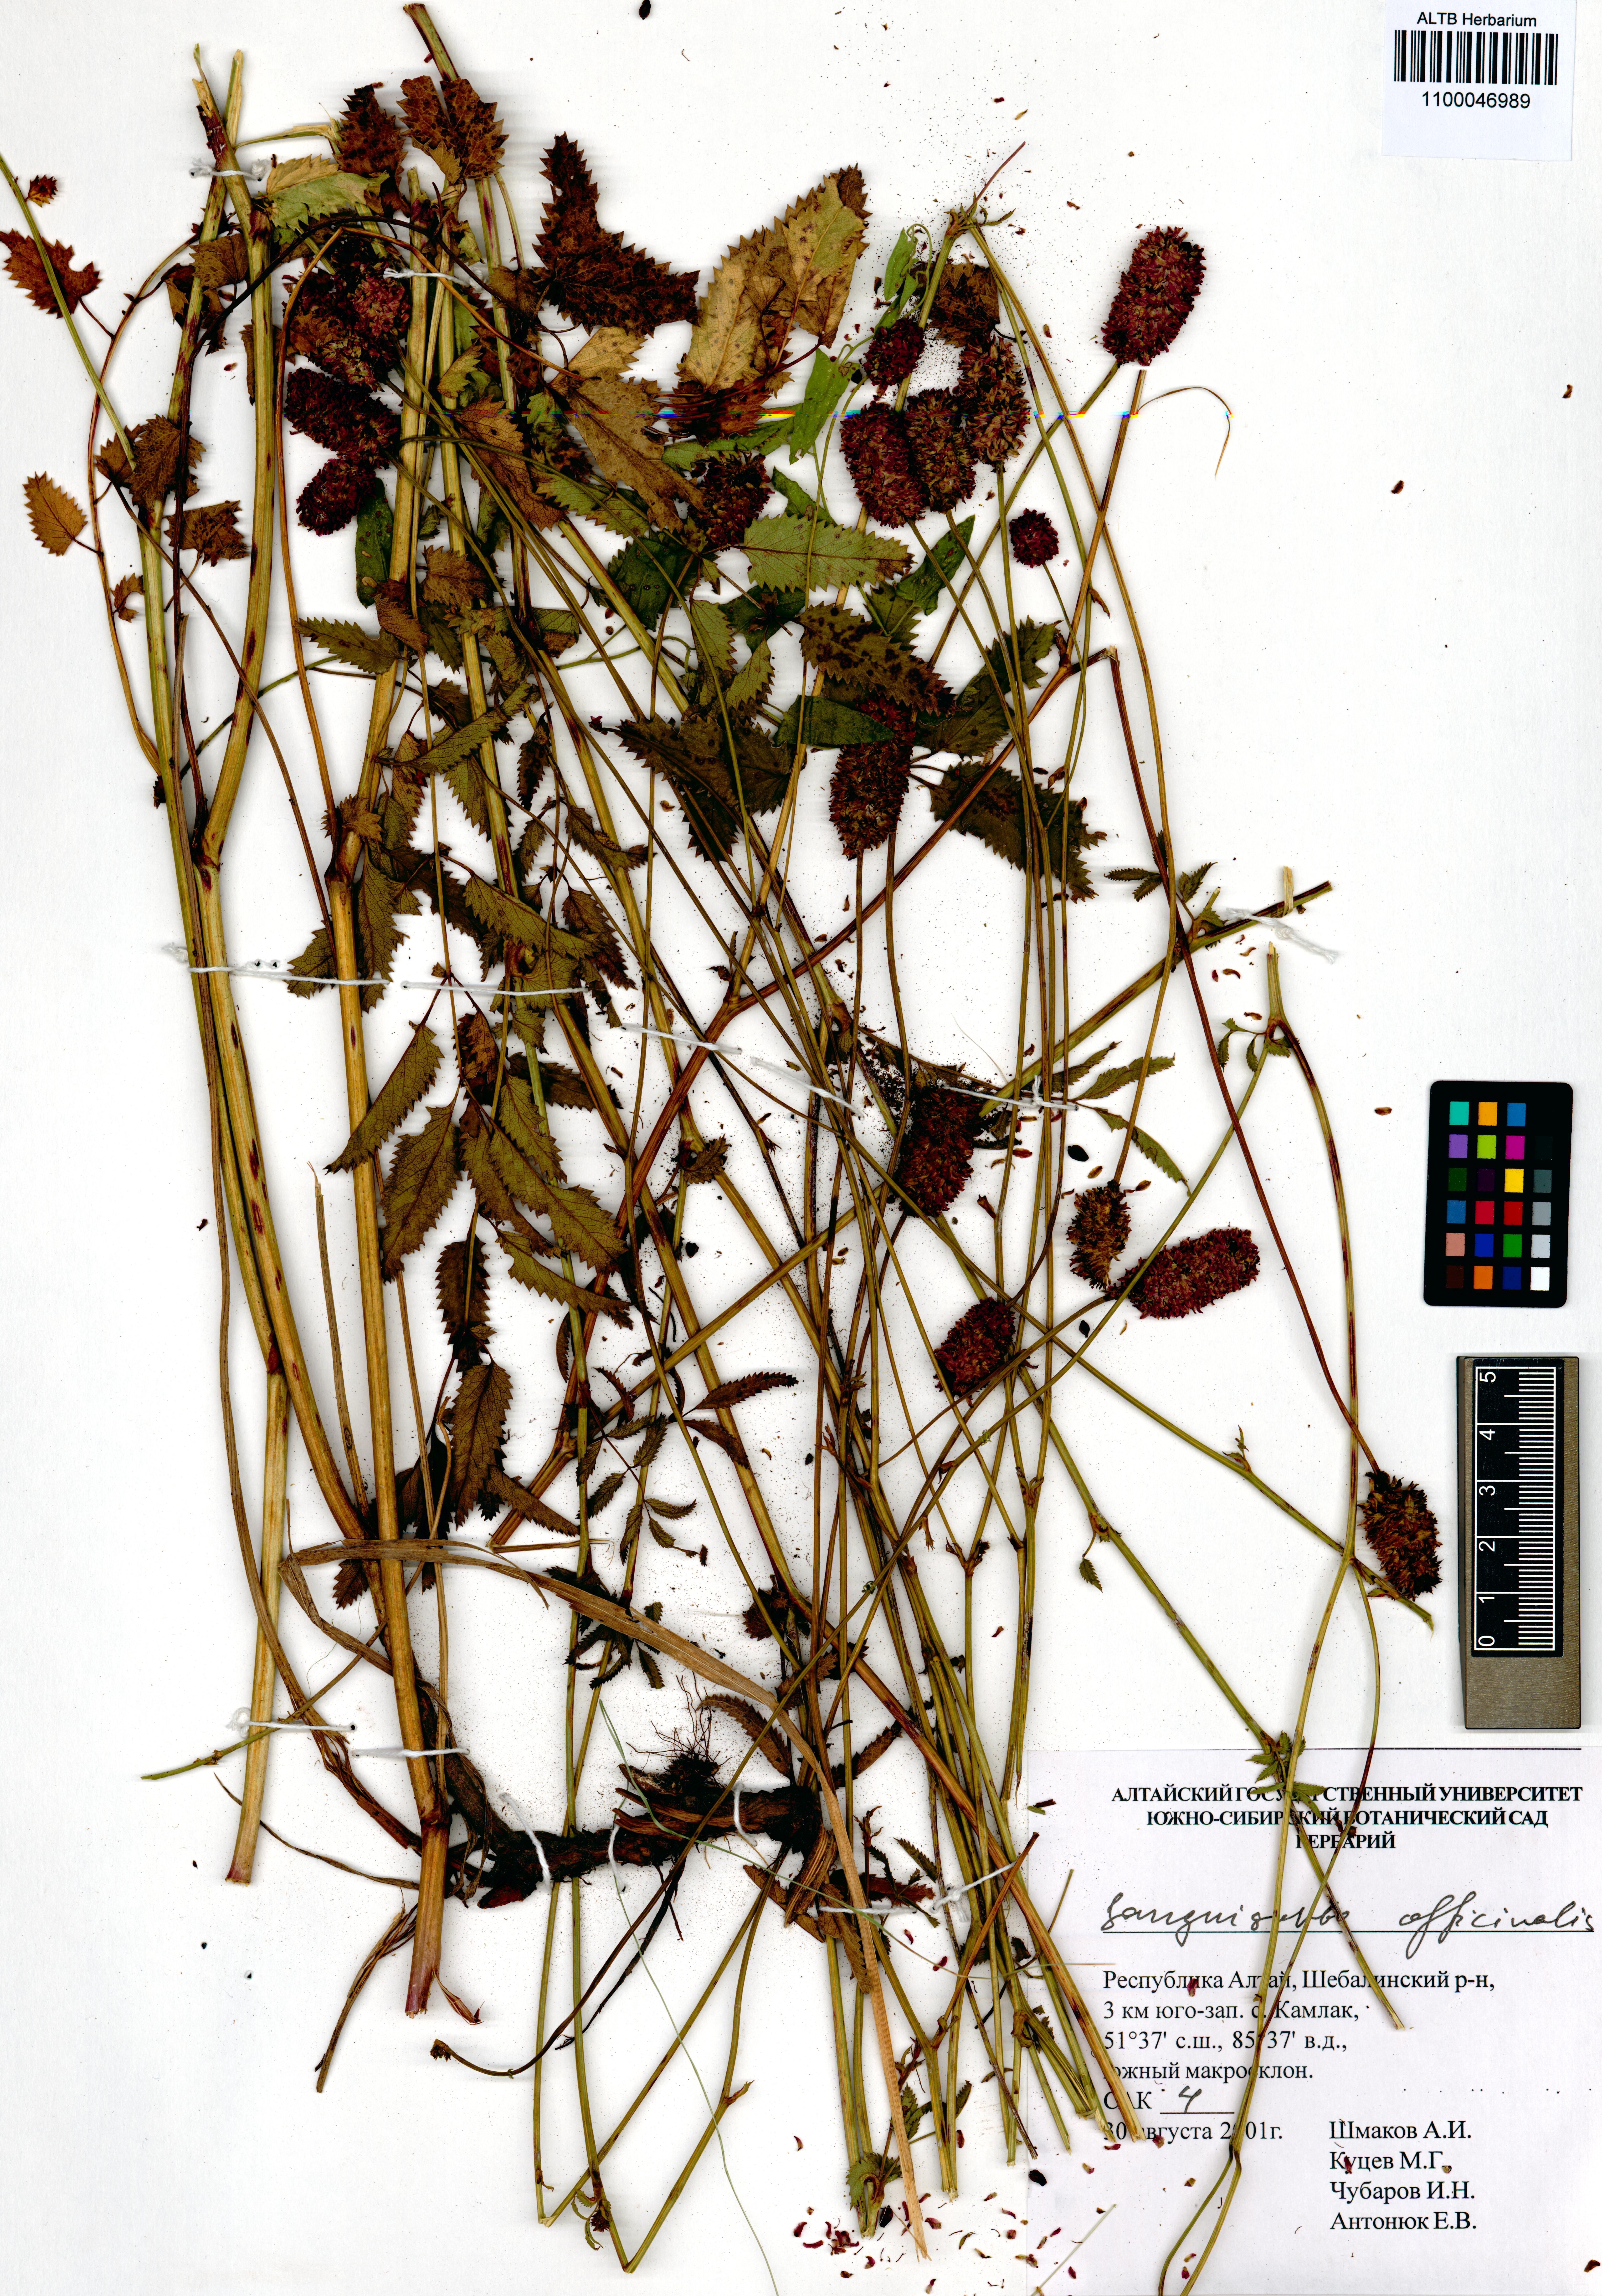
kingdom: Plantae
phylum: Tracheophyta
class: Magnoliopsida
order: Rosales
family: Rosaceae
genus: Sanguisorba
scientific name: Sanguisorba officinalis
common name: Great burnet
